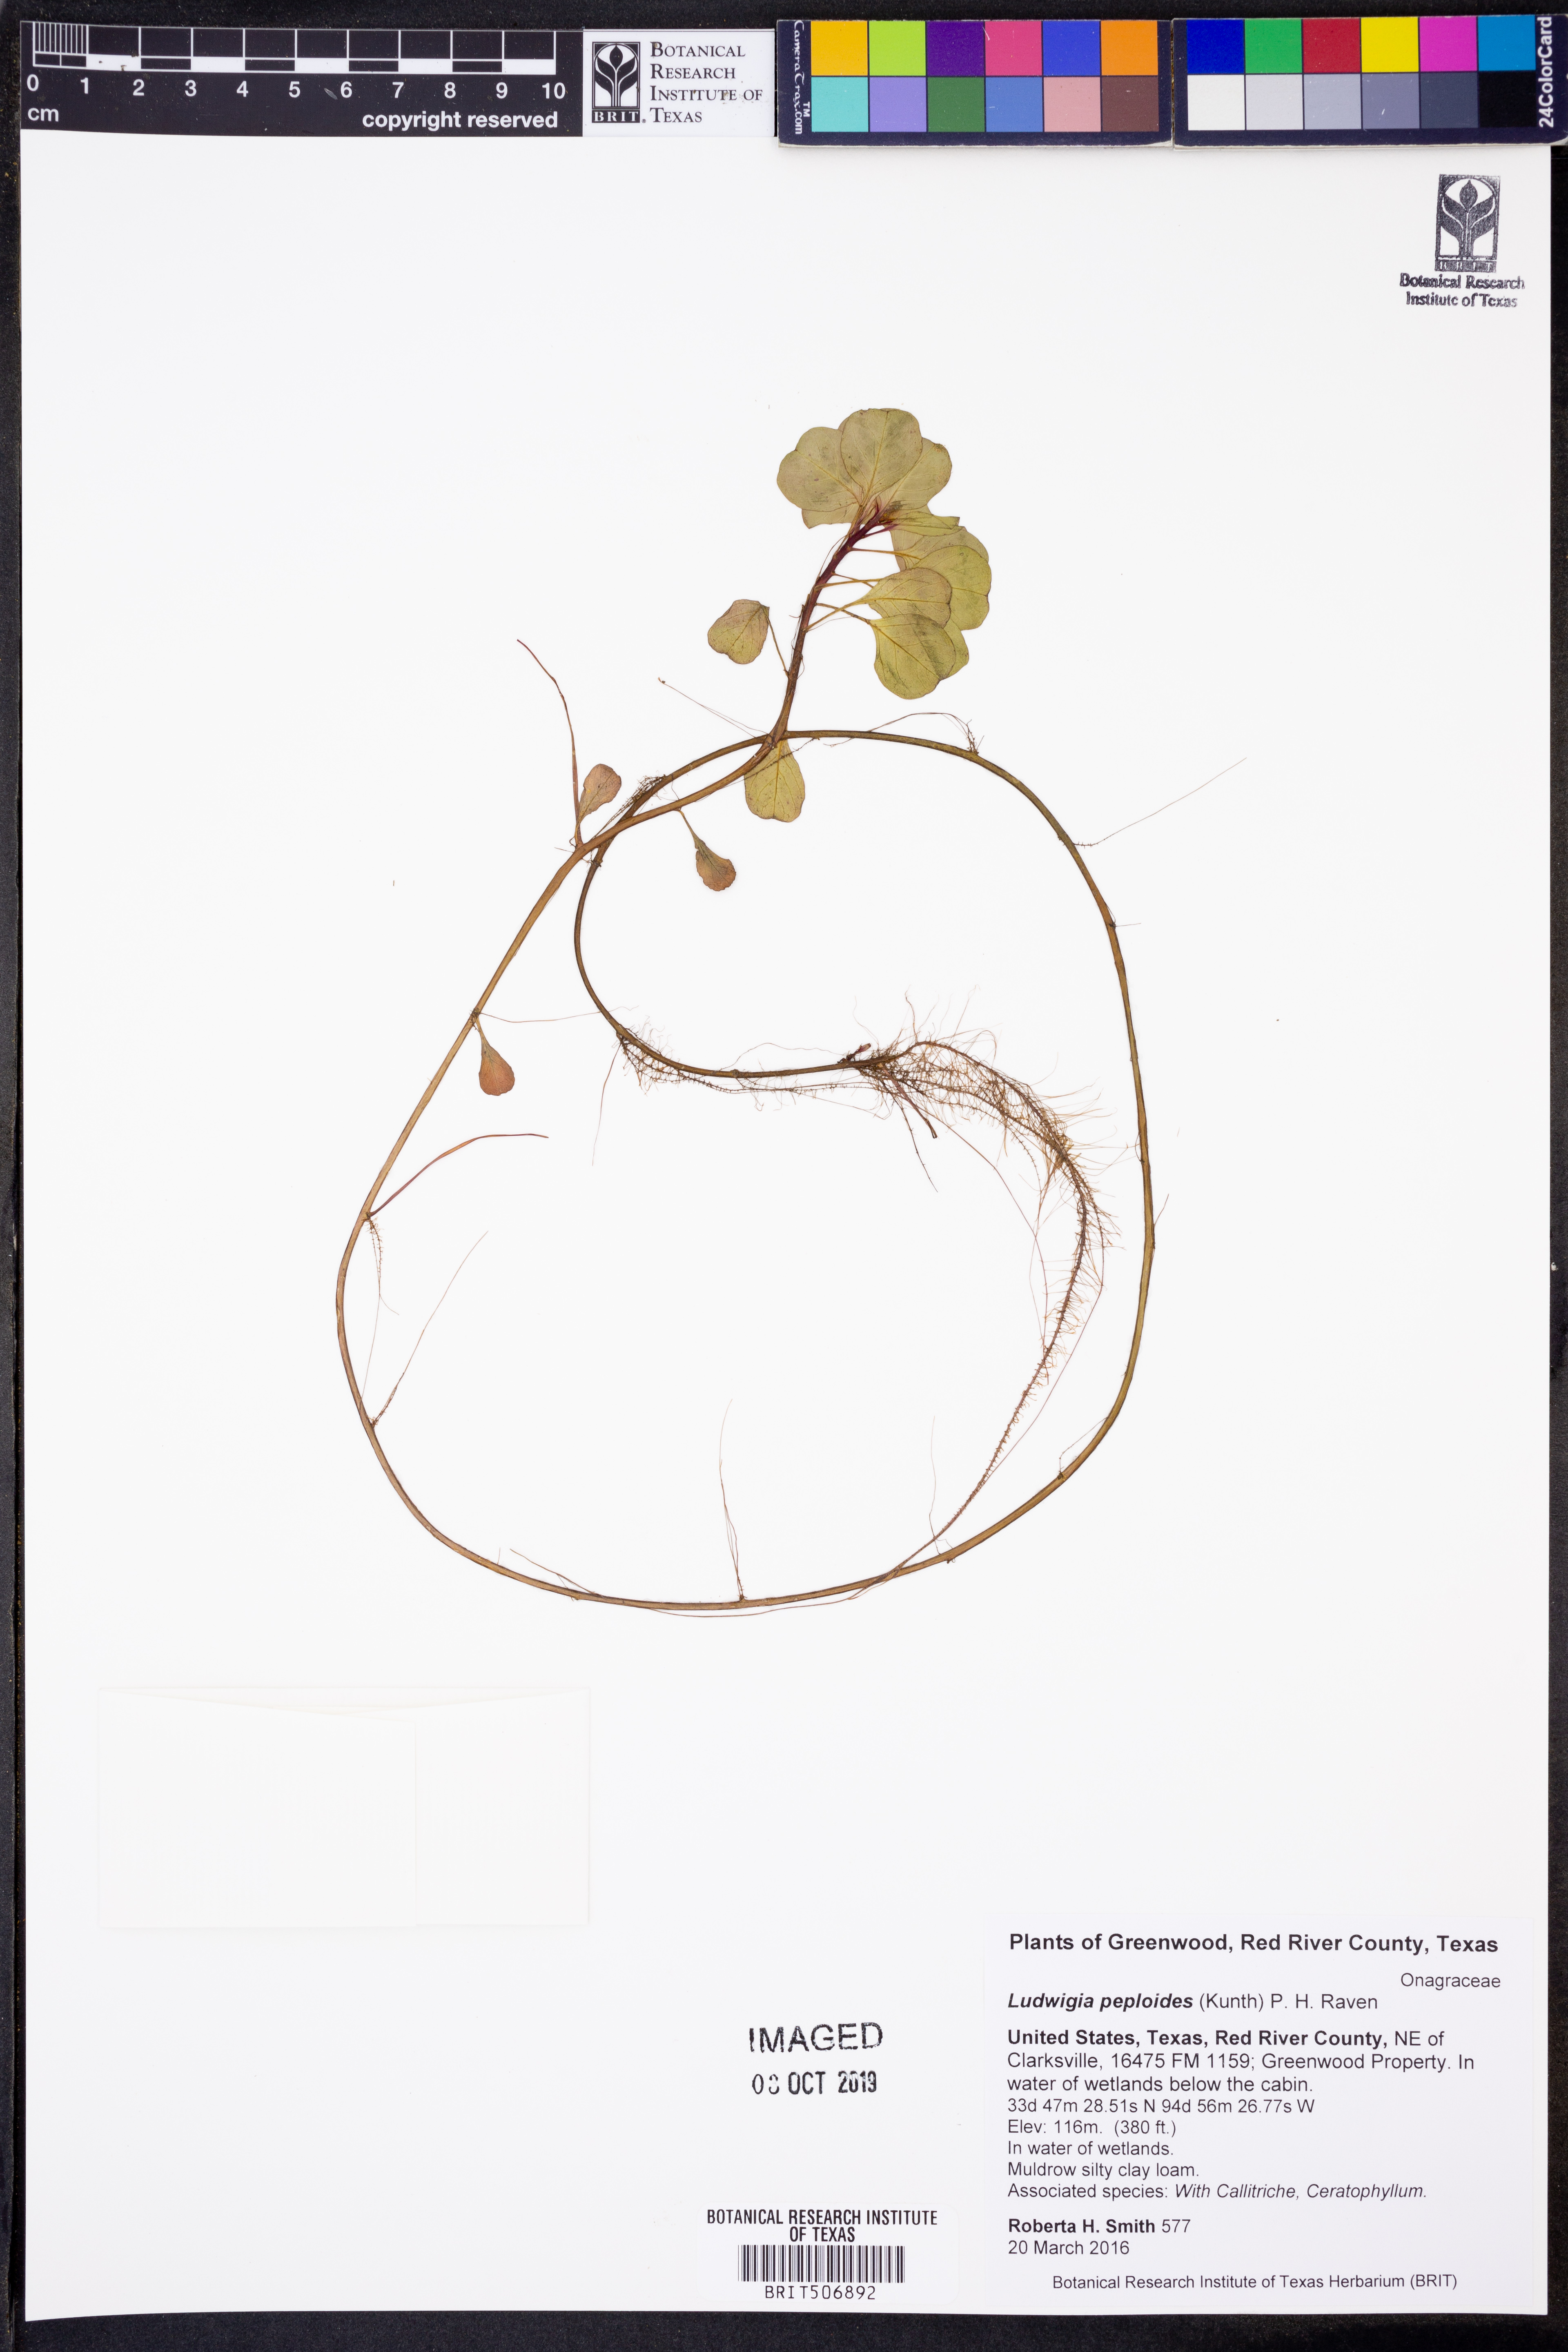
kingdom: Plantae
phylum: Tracheophyta
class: Magnoliopsida
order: Myrtales
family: Onagraceae
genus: Ludwigia
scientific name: Ludwigia peploides
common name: Floating primrose-willow
